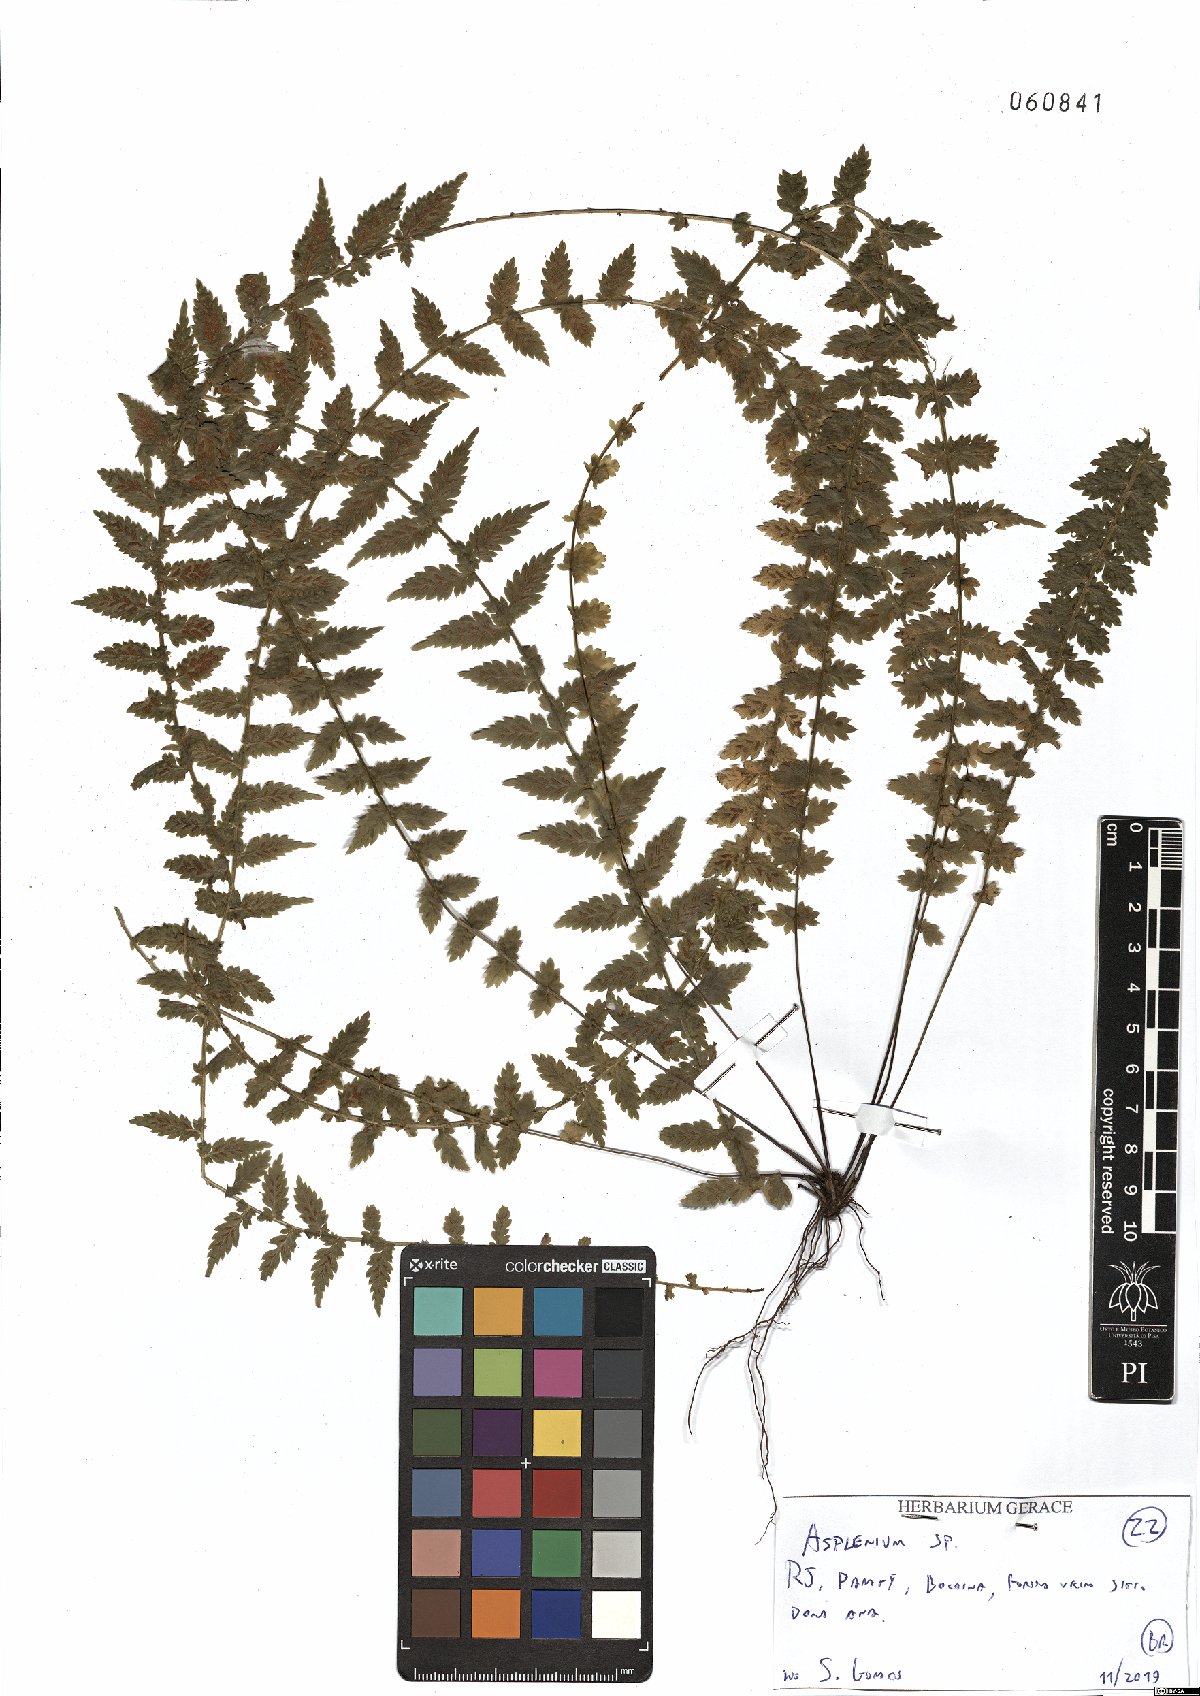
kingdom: Plantae
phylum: Tracheophyta
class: Polypodiopsida
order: Polypodiales
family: Aspleniaceae
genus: Asplenium
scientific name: Asplenium
